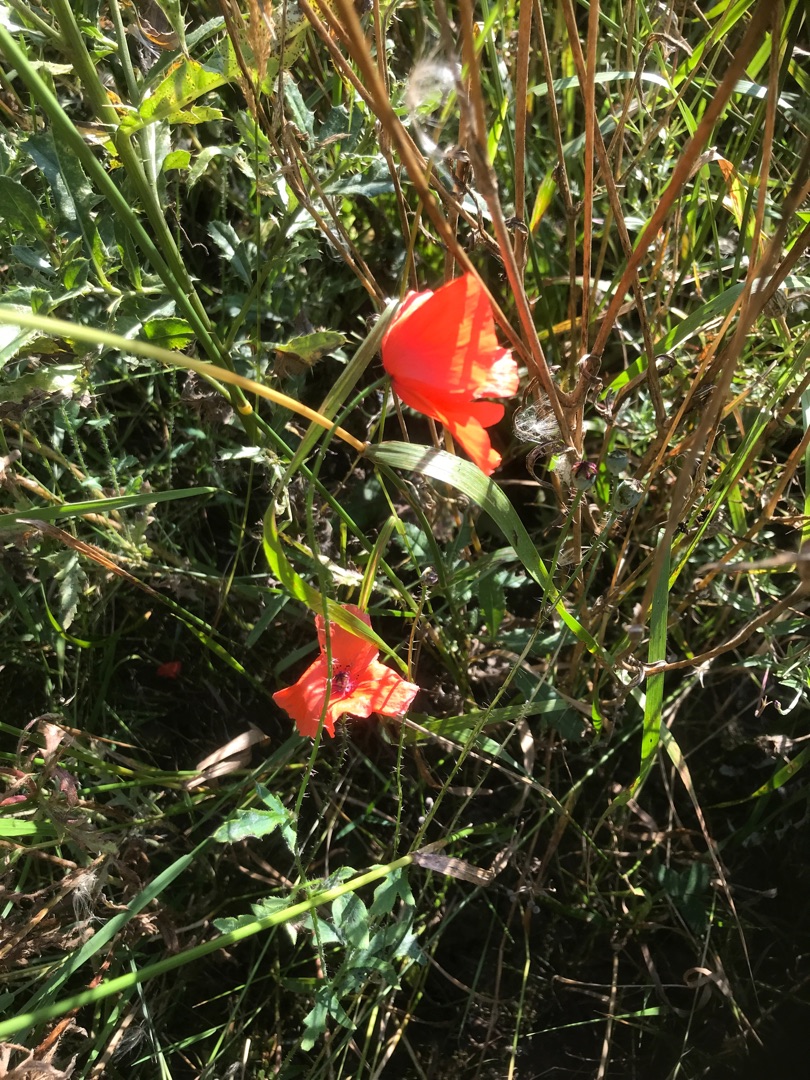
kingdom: Plantae
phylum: Tracheophyta
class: Magnoliopsida
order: Ranunculales
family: Papaveraceae
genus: Papaver
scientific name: Papaver rhoeas
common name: Korn-valmue
